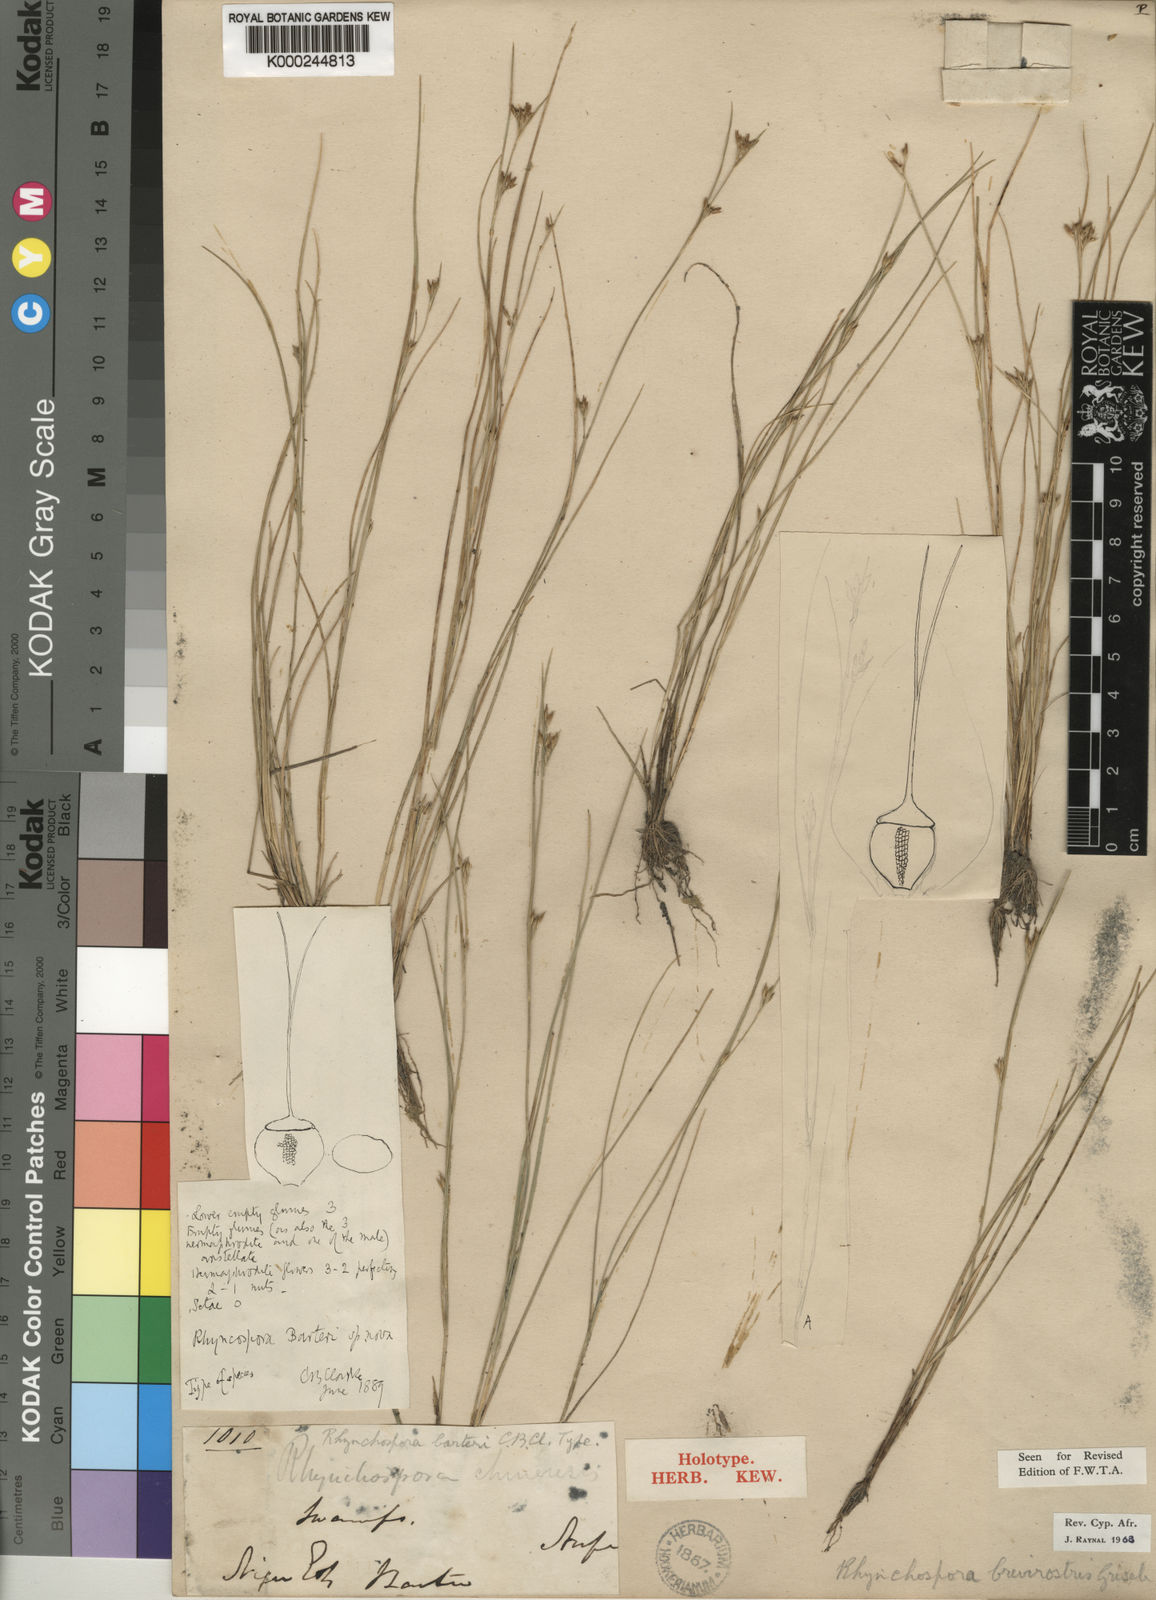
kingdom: Plantae
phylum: Tracheophyta
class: Liliopsida
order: Poales
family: Cyperaceae
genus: Rhynchospora
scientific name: Rhynchospora brevirostris
